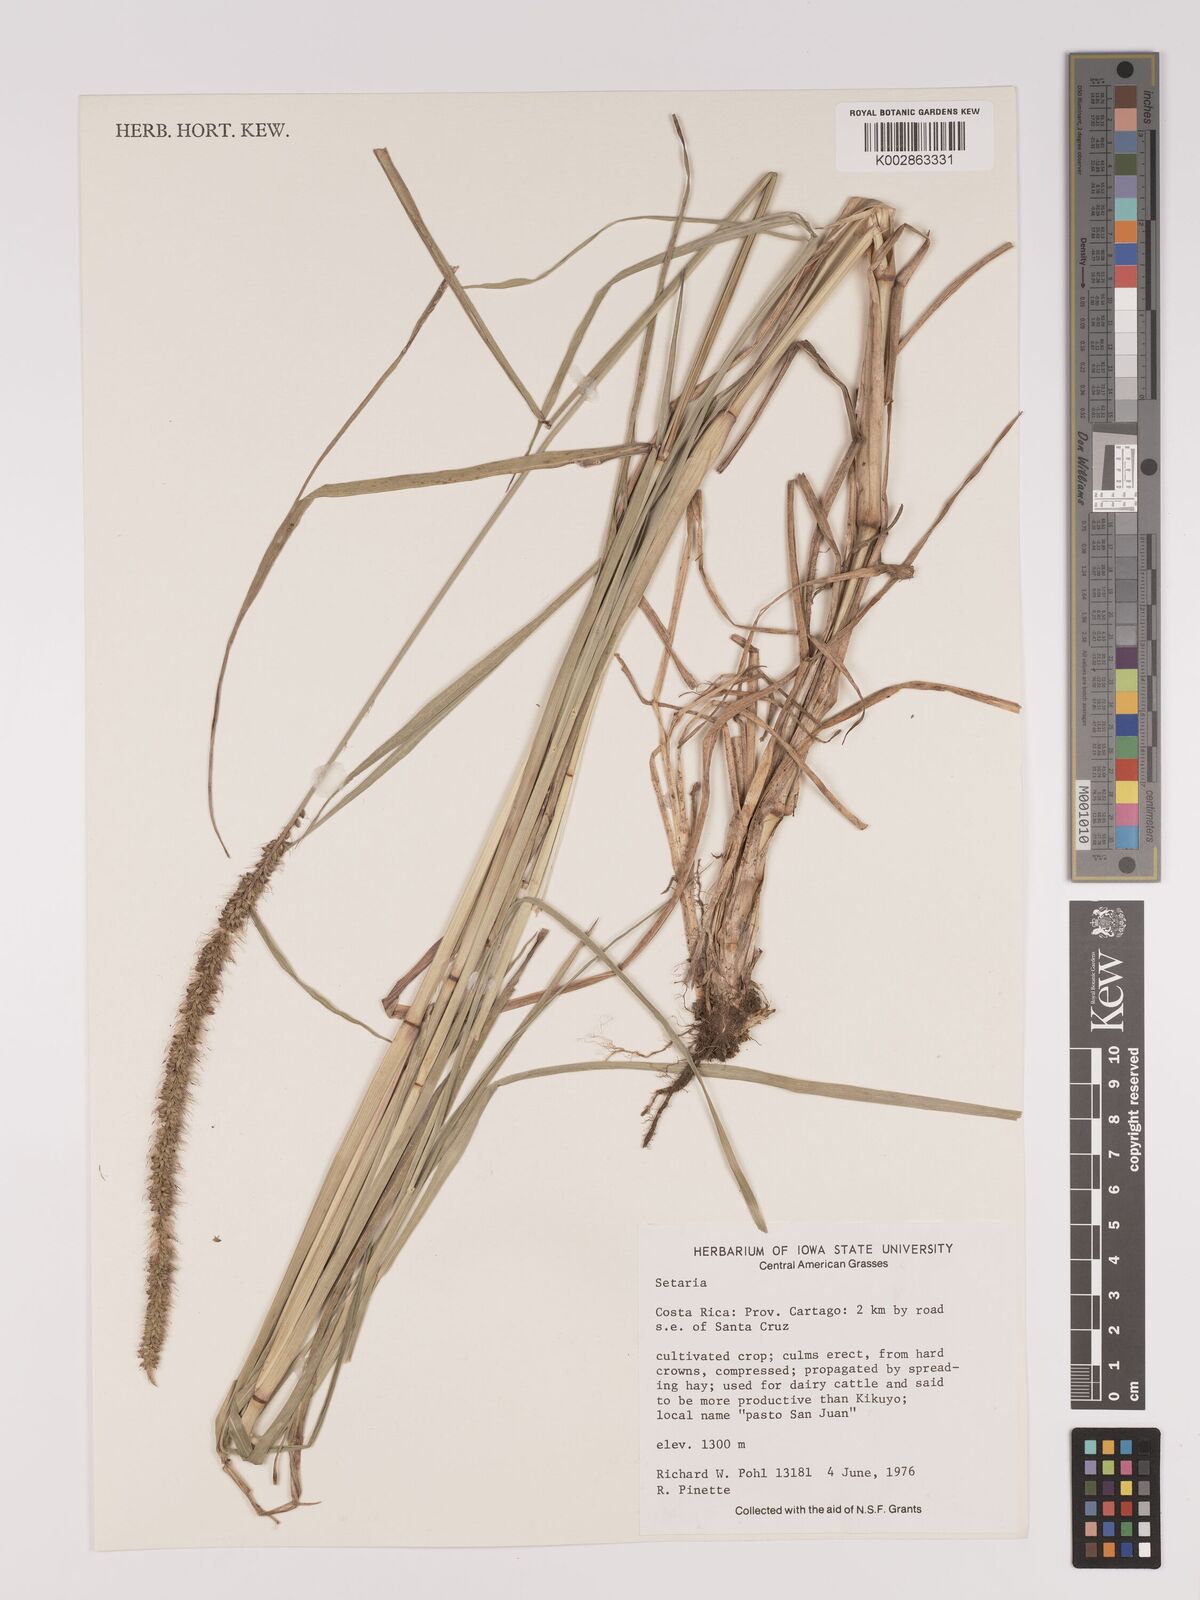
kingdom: Plantae
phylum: Tracheophyta
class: Liliopsida
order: Poales
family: Poaceae
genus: Setaria
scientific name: Setaria
